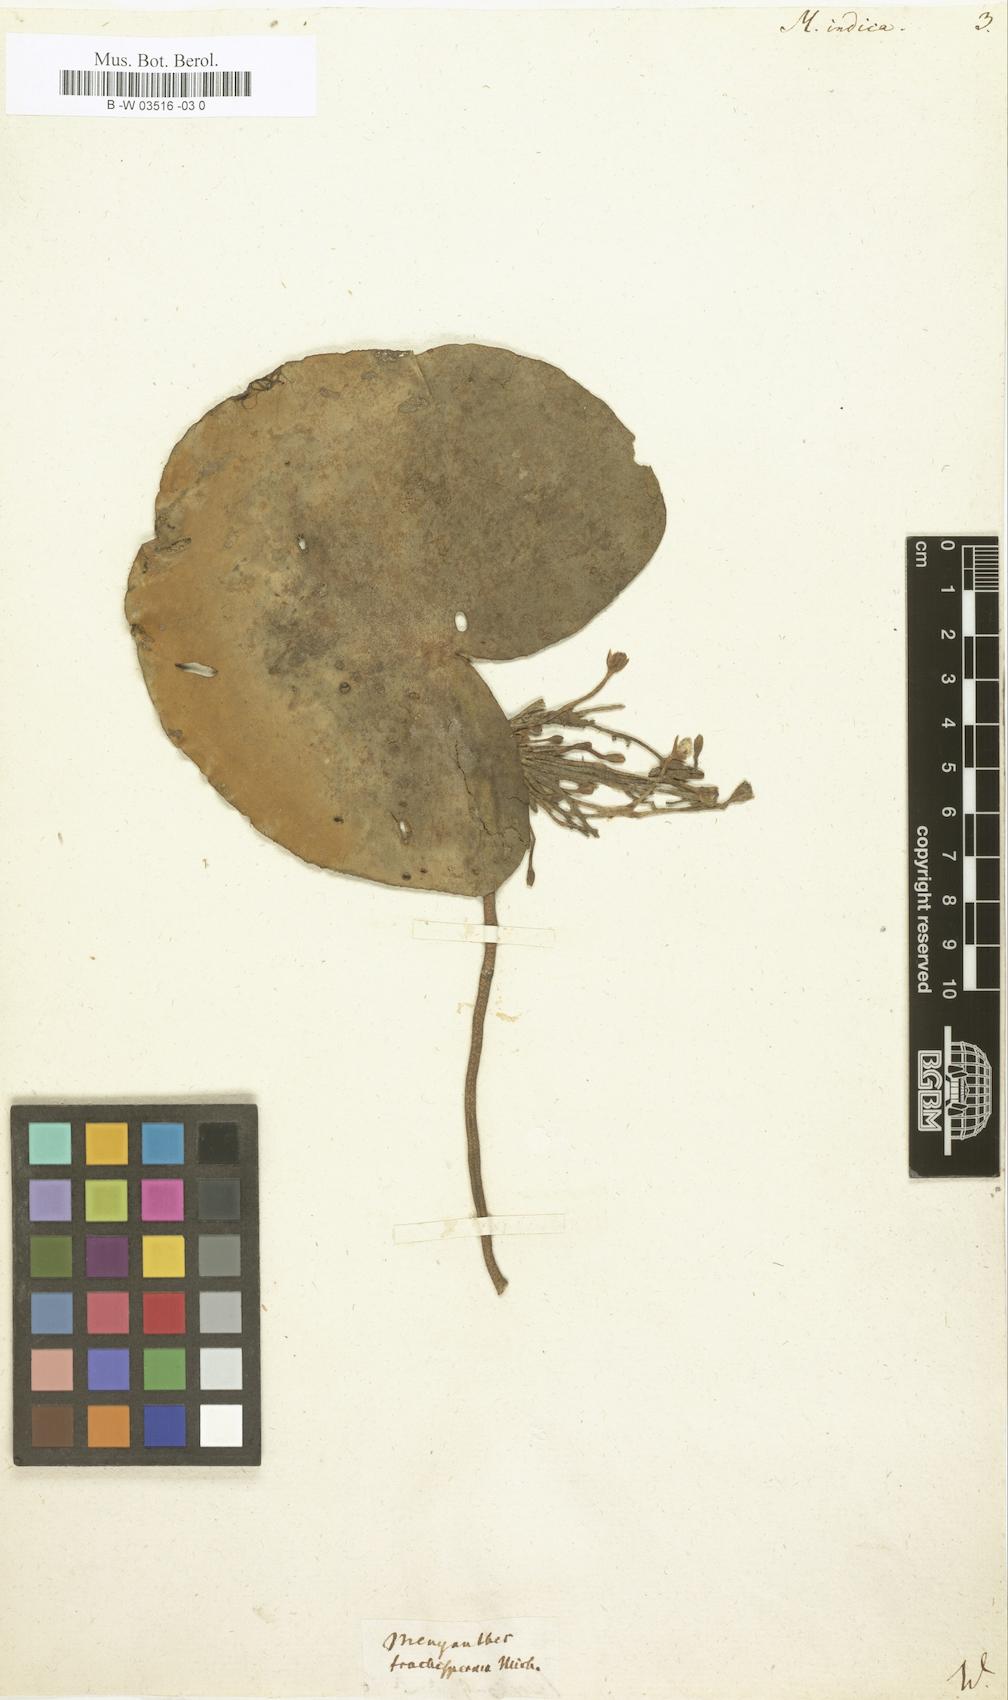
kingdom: Plantae
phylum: Tracheophyta
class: Magnoliopsida
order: Asterales
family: Menyanthaceae
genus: Nymphoides
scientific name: Nymphoides indica
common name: Water-snowflake
